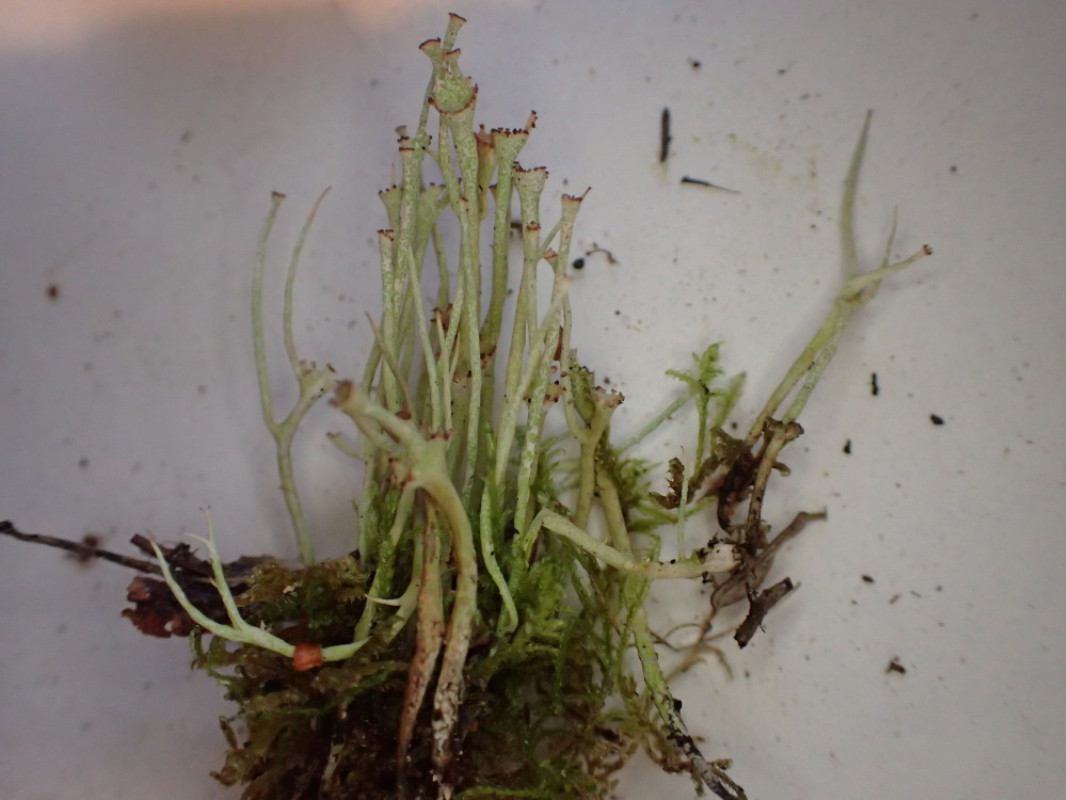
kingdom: Fungi
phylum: Ascomycota
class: Lecanoromycetes
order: Lecanorales
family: Cladoniaceae
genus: Cladonia
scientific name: Cladonia gracilis
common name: slank bægerlav
